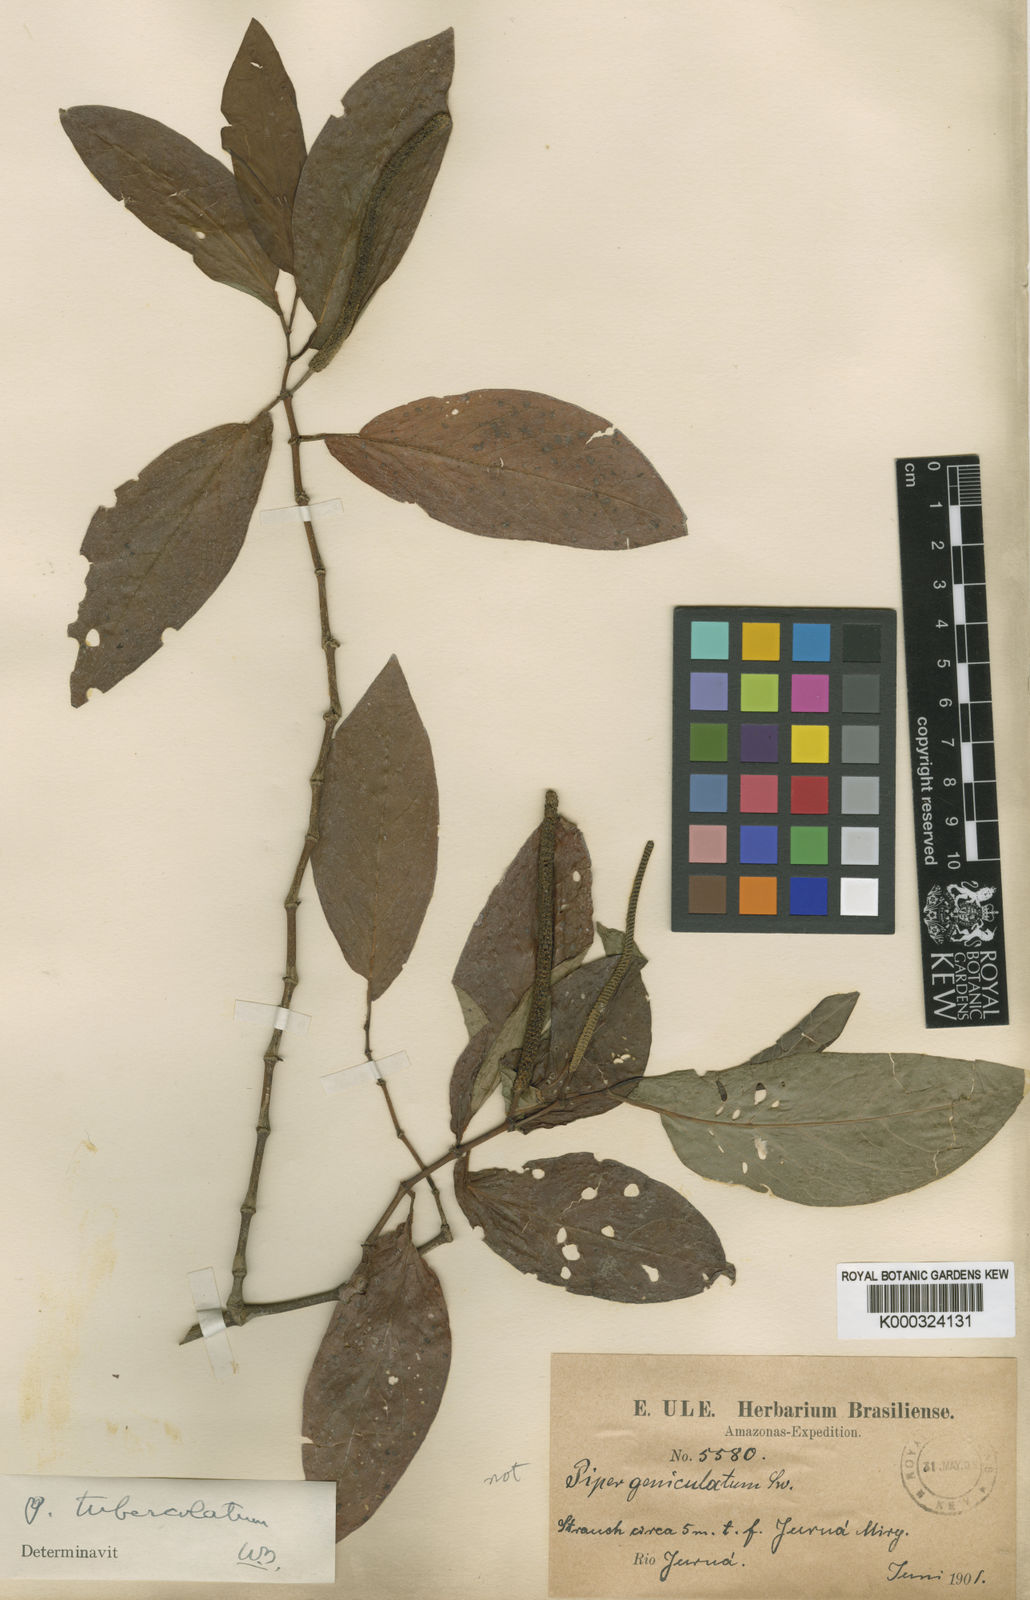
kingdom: Plantae
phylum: Tracheophyta
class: Magnoliopsida
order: Piperales
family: Piperaceae
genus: Piper
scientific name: Piper tuberculatum
